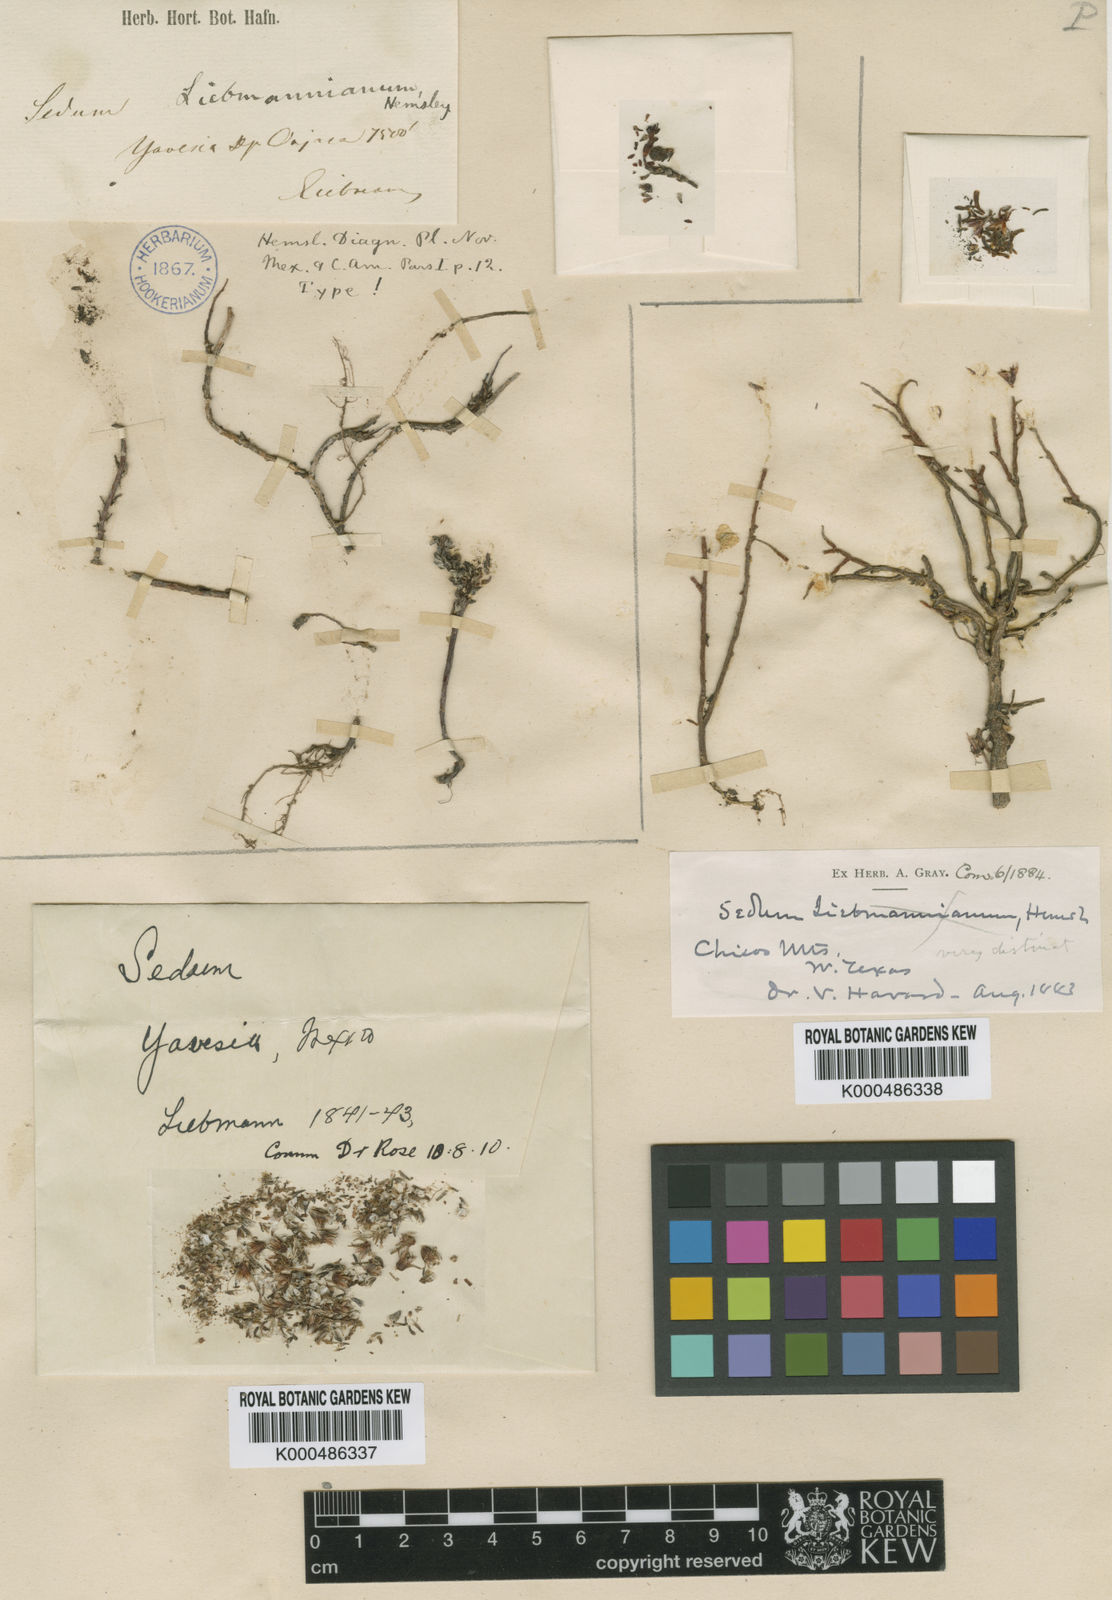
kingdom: Plantae
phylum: Tracheophyta
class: Magnoliopsida
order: Saxifragales
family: Crassulaceae
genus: Sedum
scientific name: Sedum moranense
